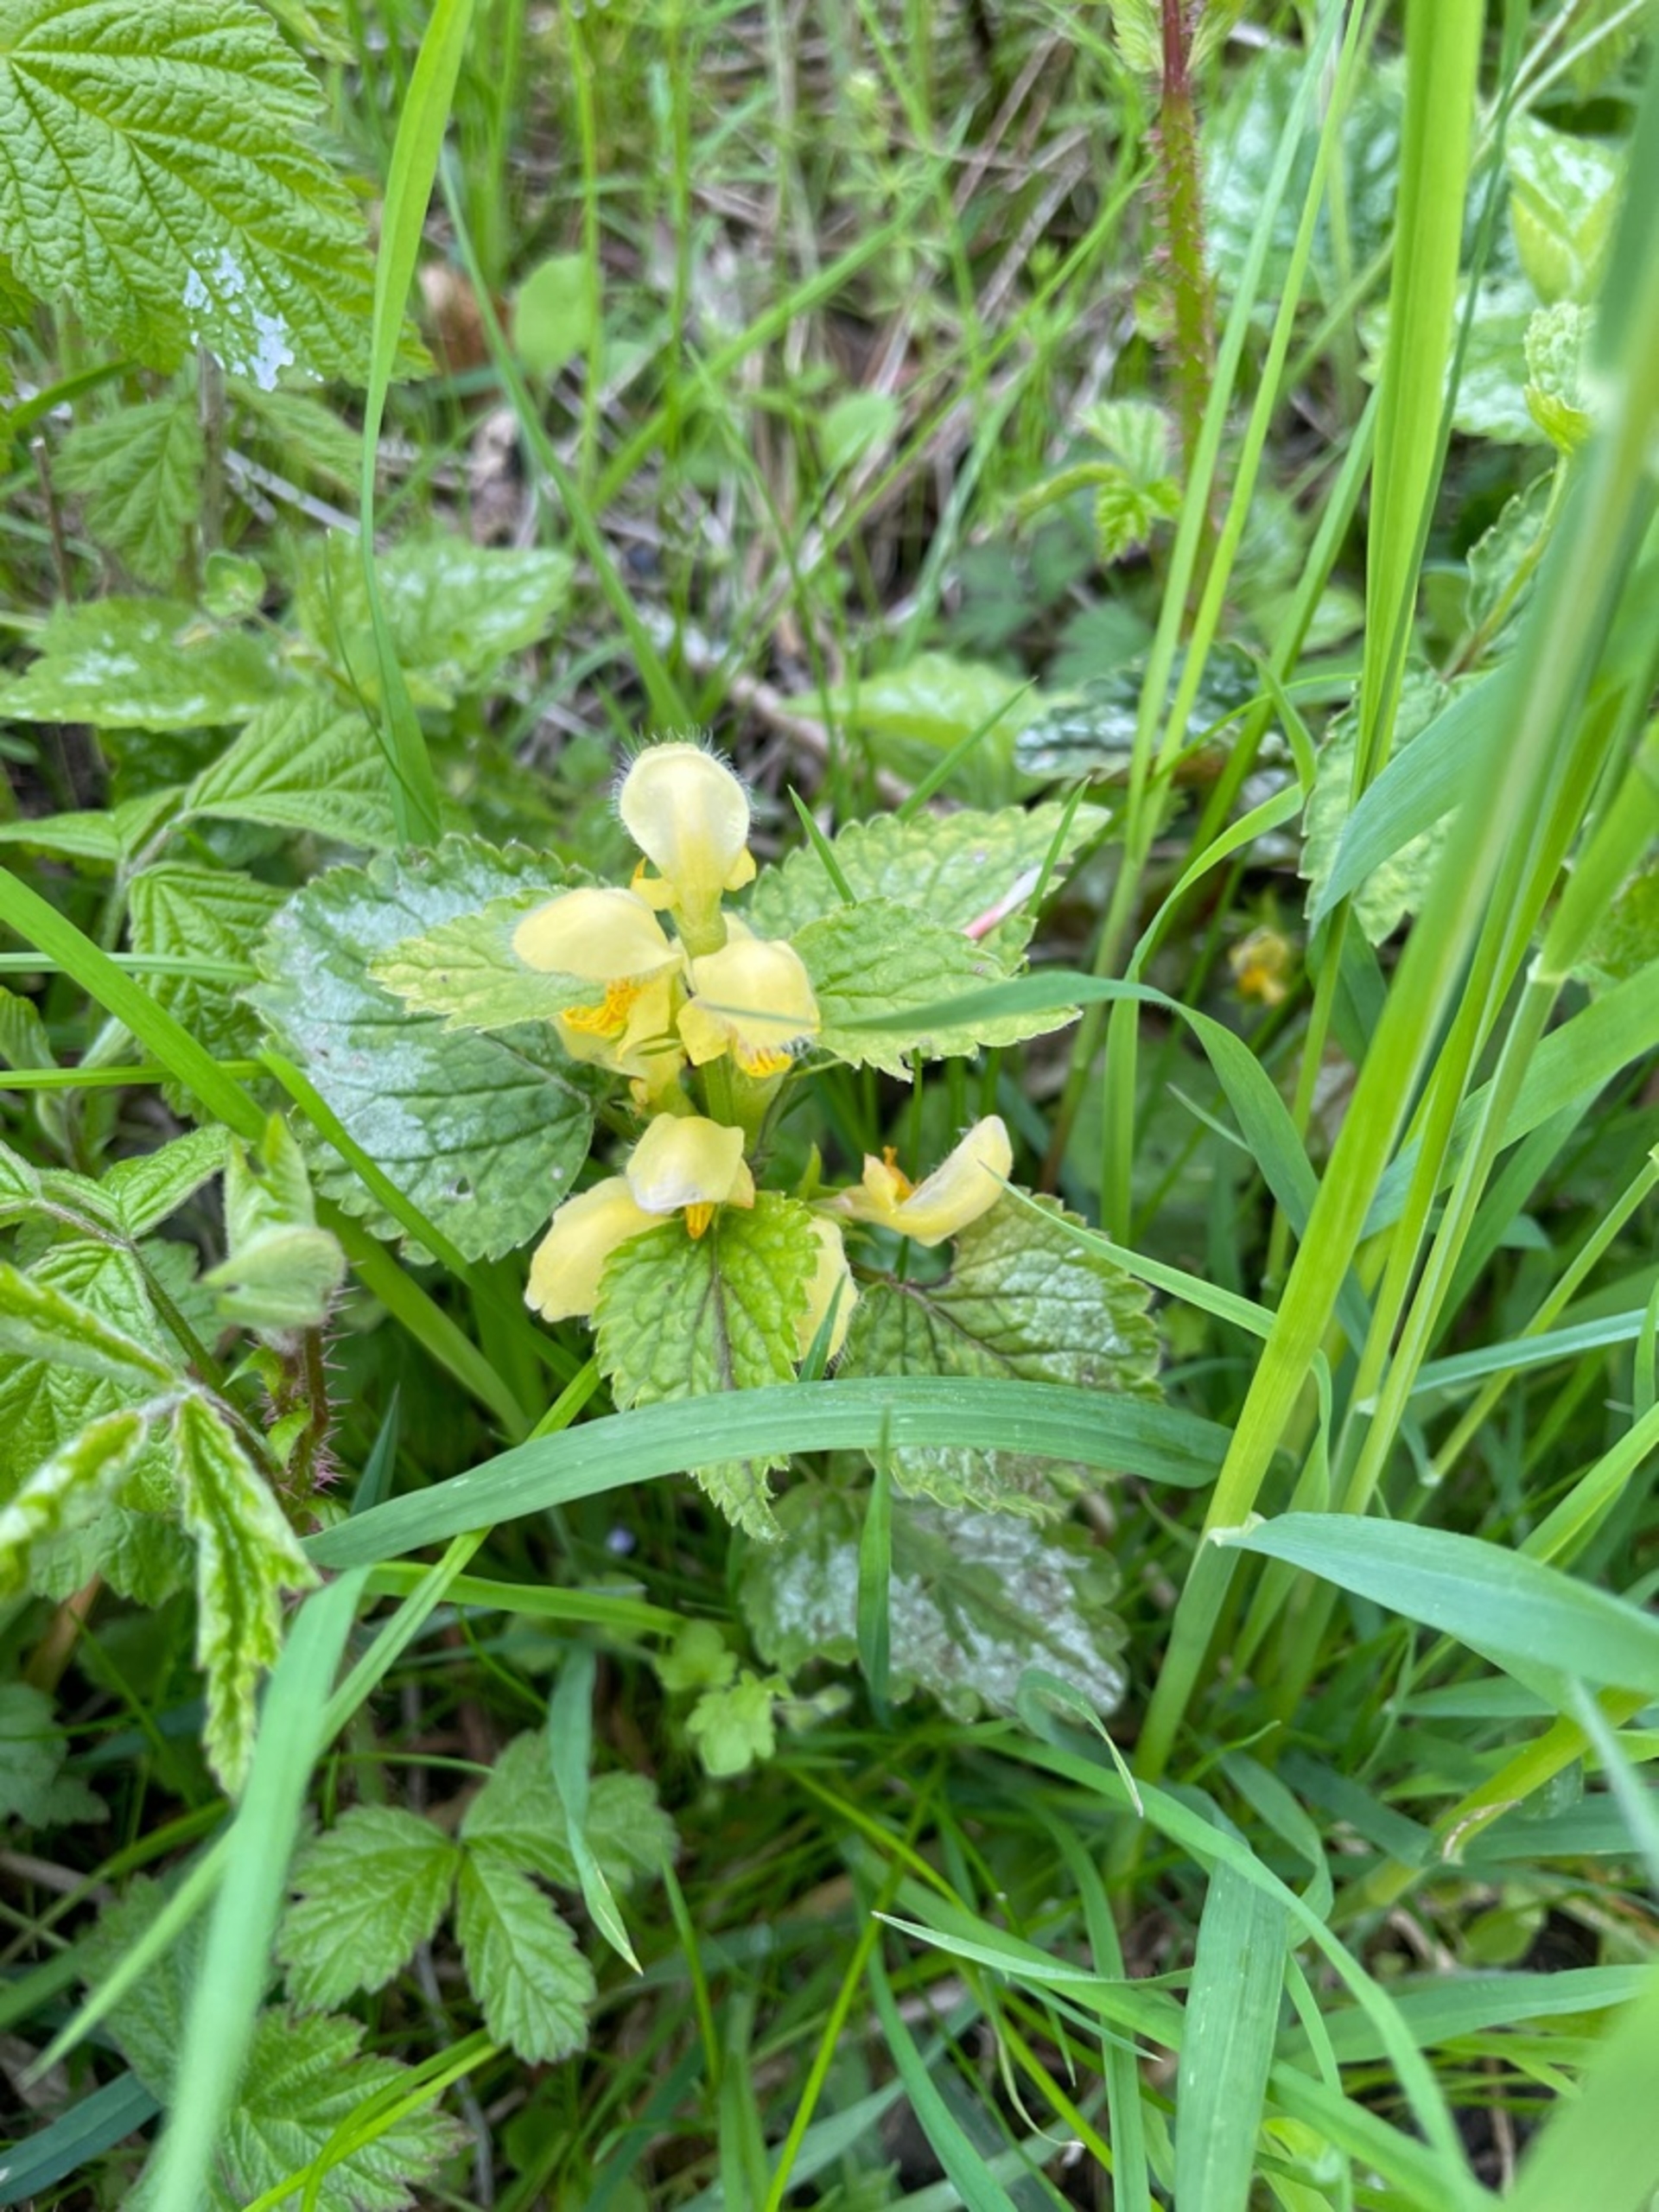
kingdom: Plantae
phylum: Tracheophyta
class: Magnoliopsida
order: Lamiales
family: Lamiaceae
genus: Lamium
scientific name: Lamium galeobdolon
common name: Guldnælde
